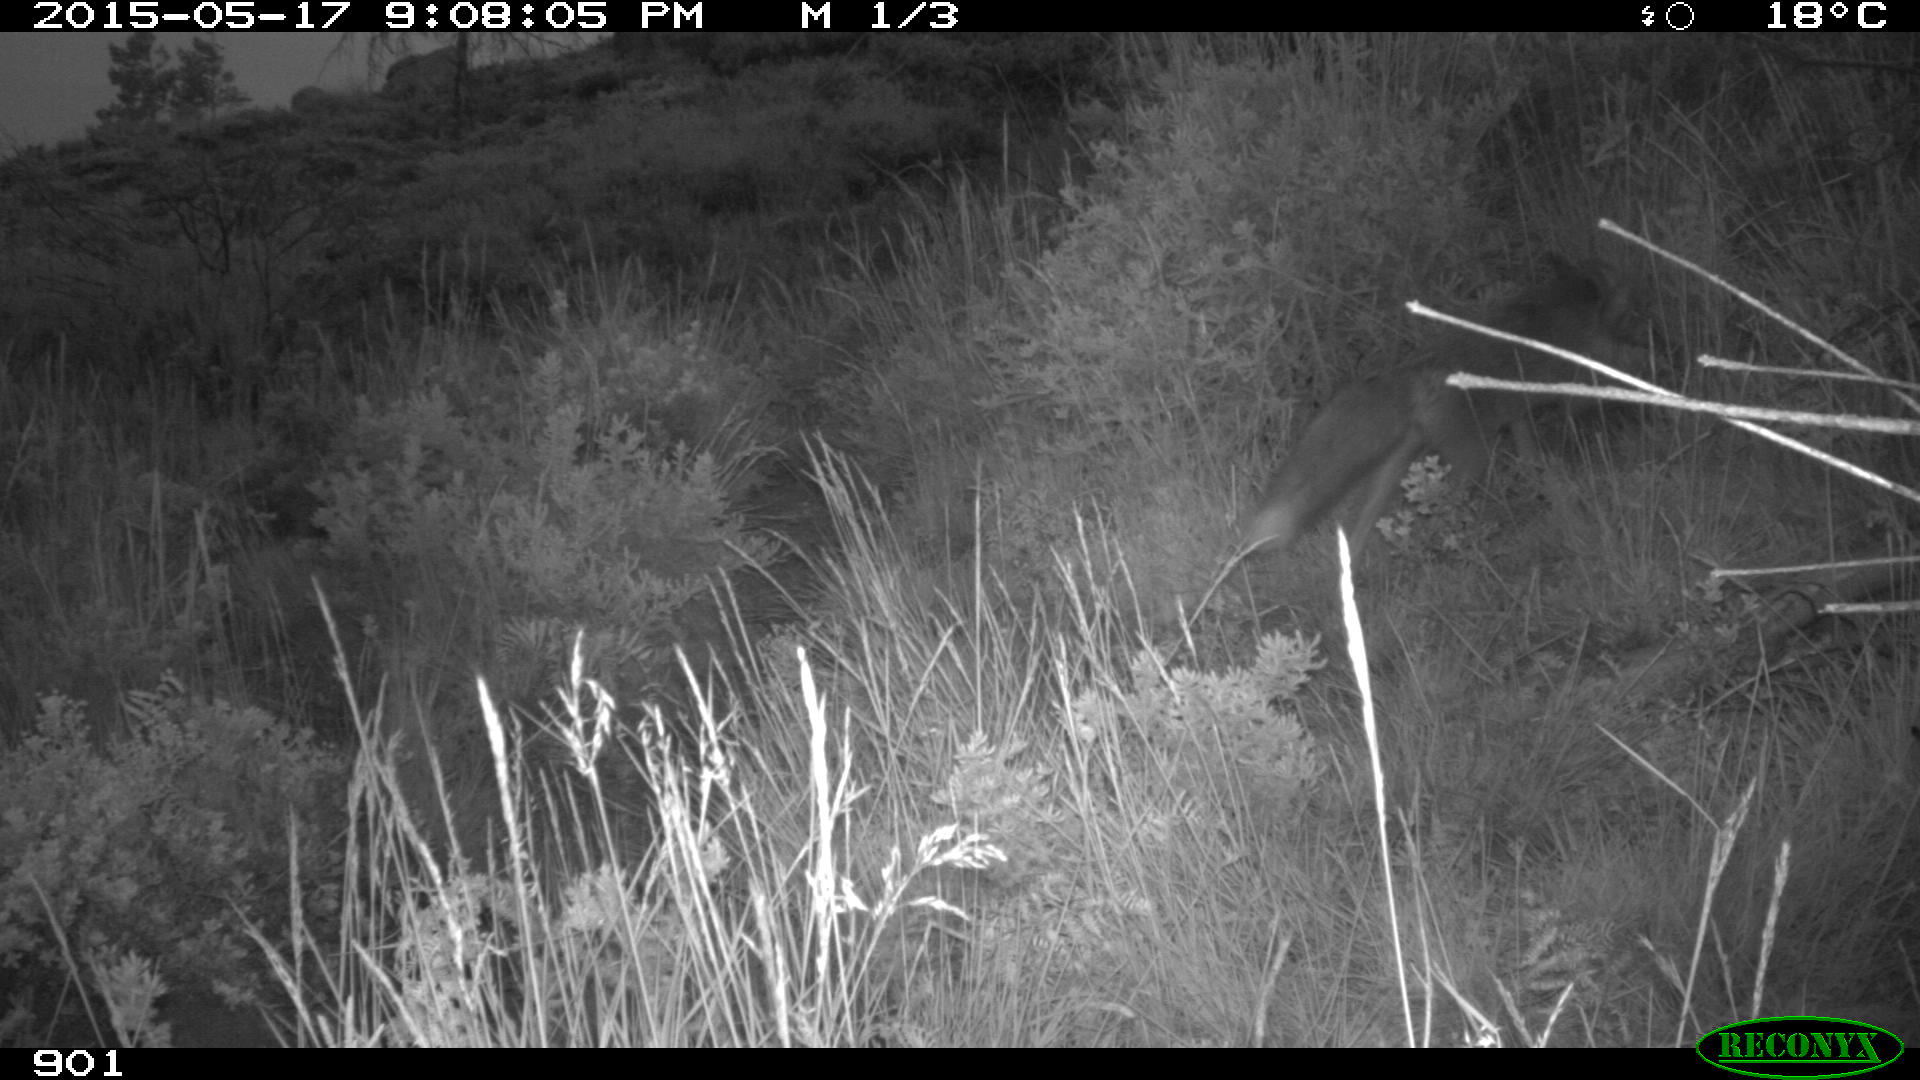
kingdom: Animalia
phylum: Chordata
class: Mammalia
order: Carnivora
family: Canidae
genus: Vulpes
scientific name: Vulpes vulpes
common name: Red fox
